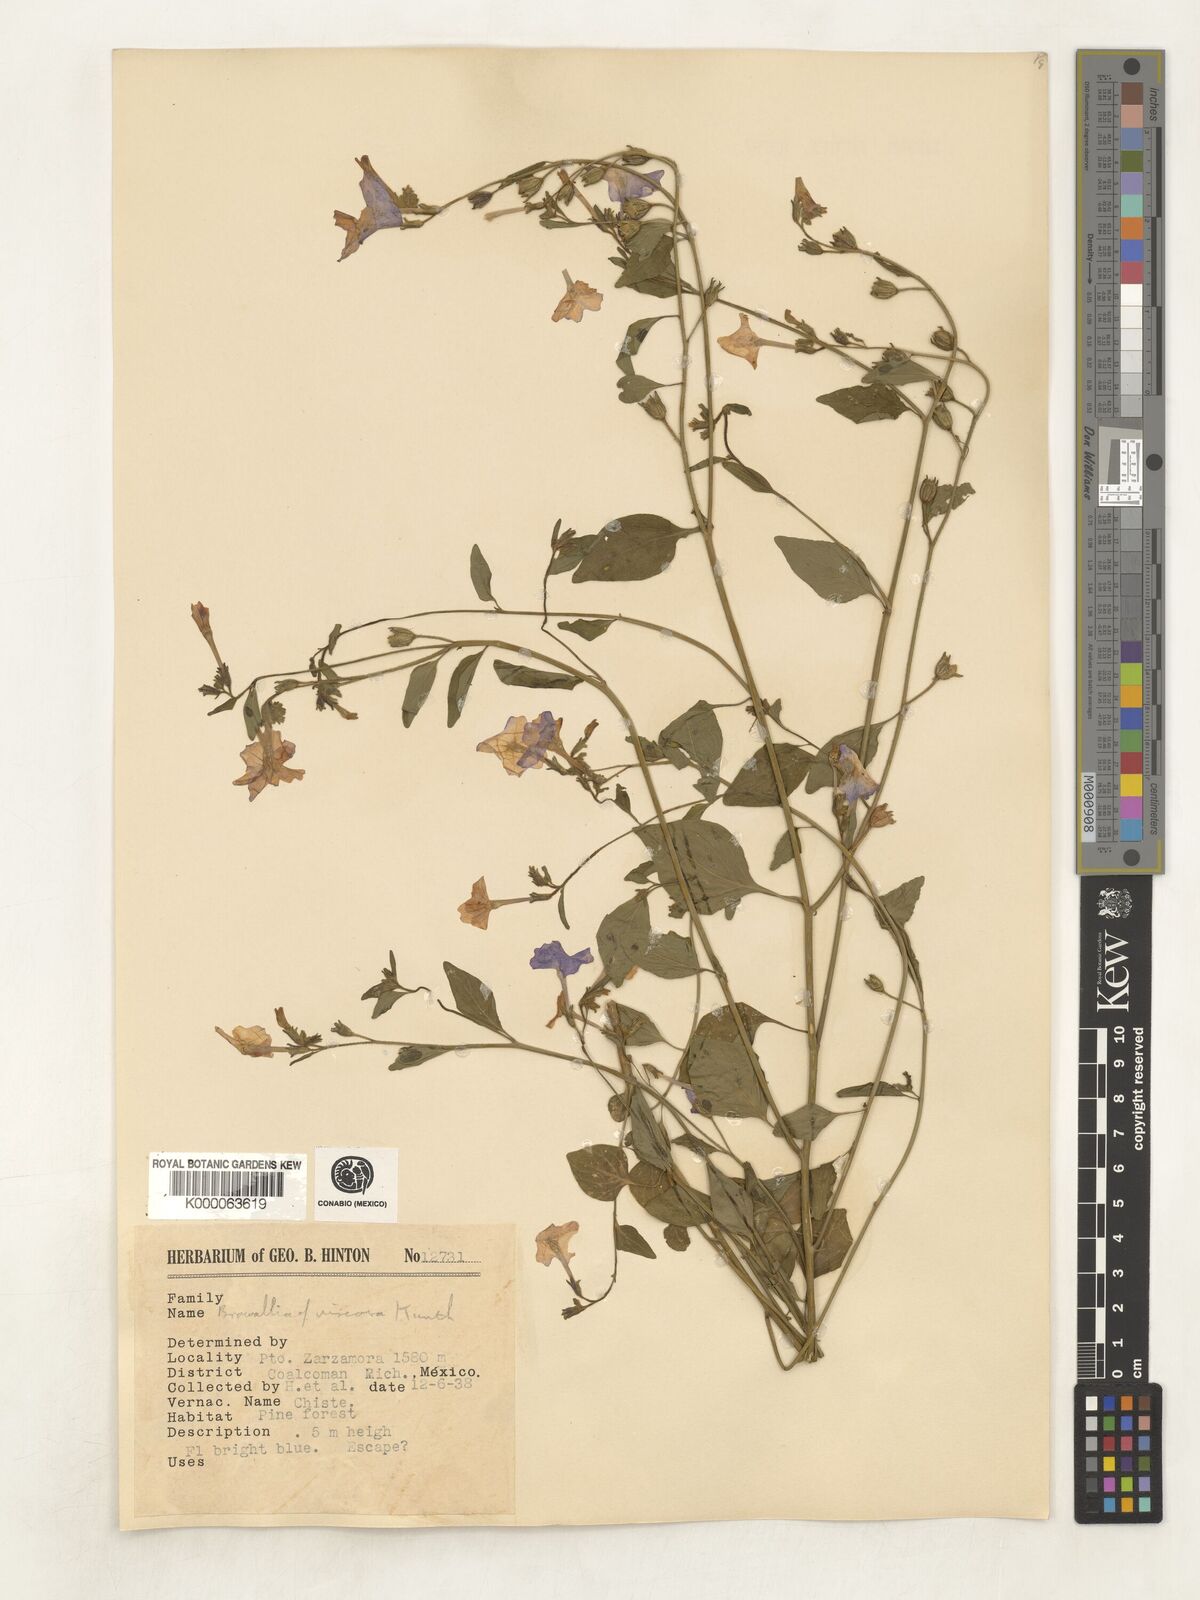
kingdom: Plantae
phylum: Tracheophyta
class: Magnoliopsida
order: Solanales
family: Solanaceae
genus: Browallia
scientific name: Browallia americana
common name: Jamaican forget-me-not
